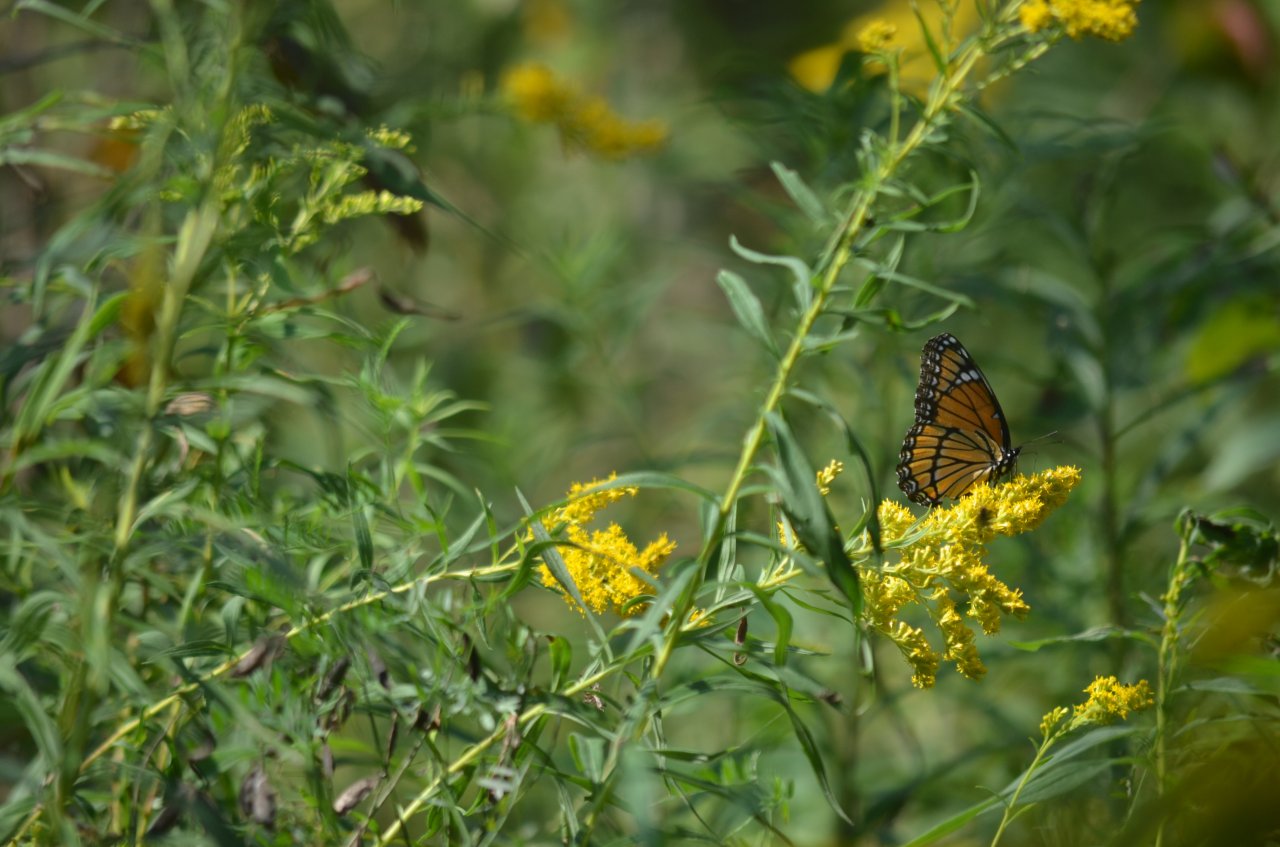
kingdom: Animalia
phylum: Arthropoda
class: Insecta
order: Lepidoptera
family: Nymphalidae
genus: Limenitis
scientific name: Limenitis archippus
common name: Viceroy
